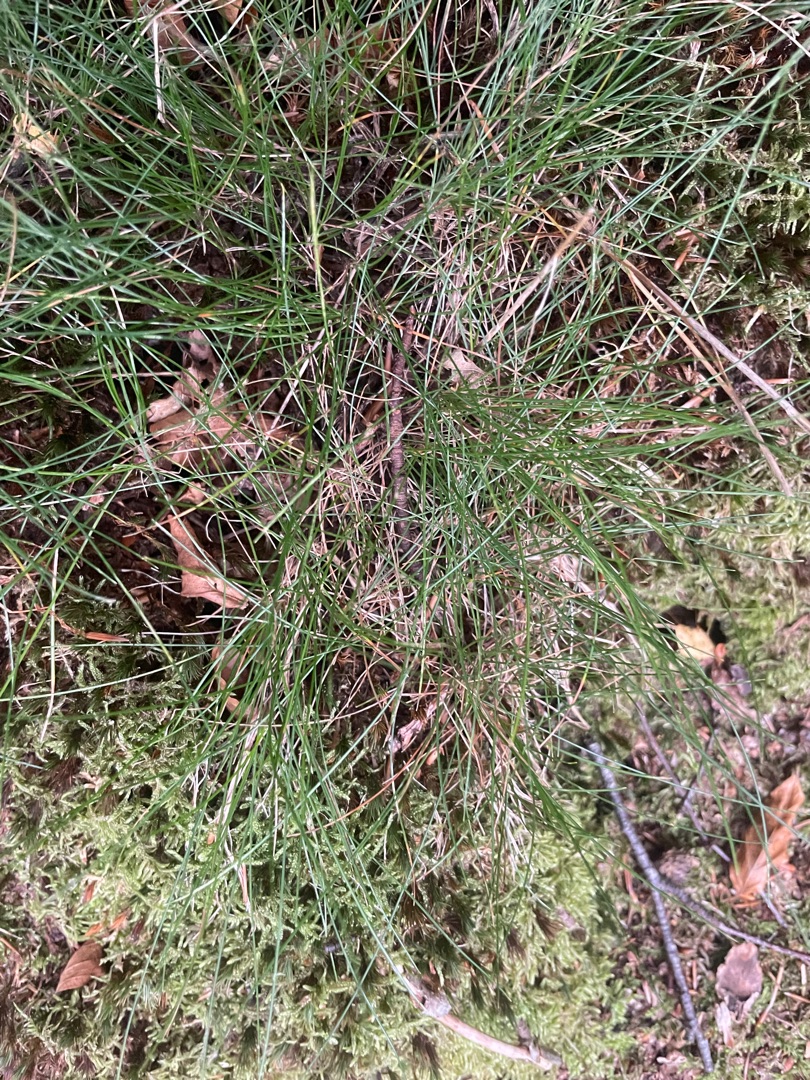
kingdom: Plantae
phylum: Tracheophyta
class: Liliopsida
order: Poales
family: Poaceae
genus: Avenella
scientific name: Avenella flexuosa
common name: Bølget bunke
